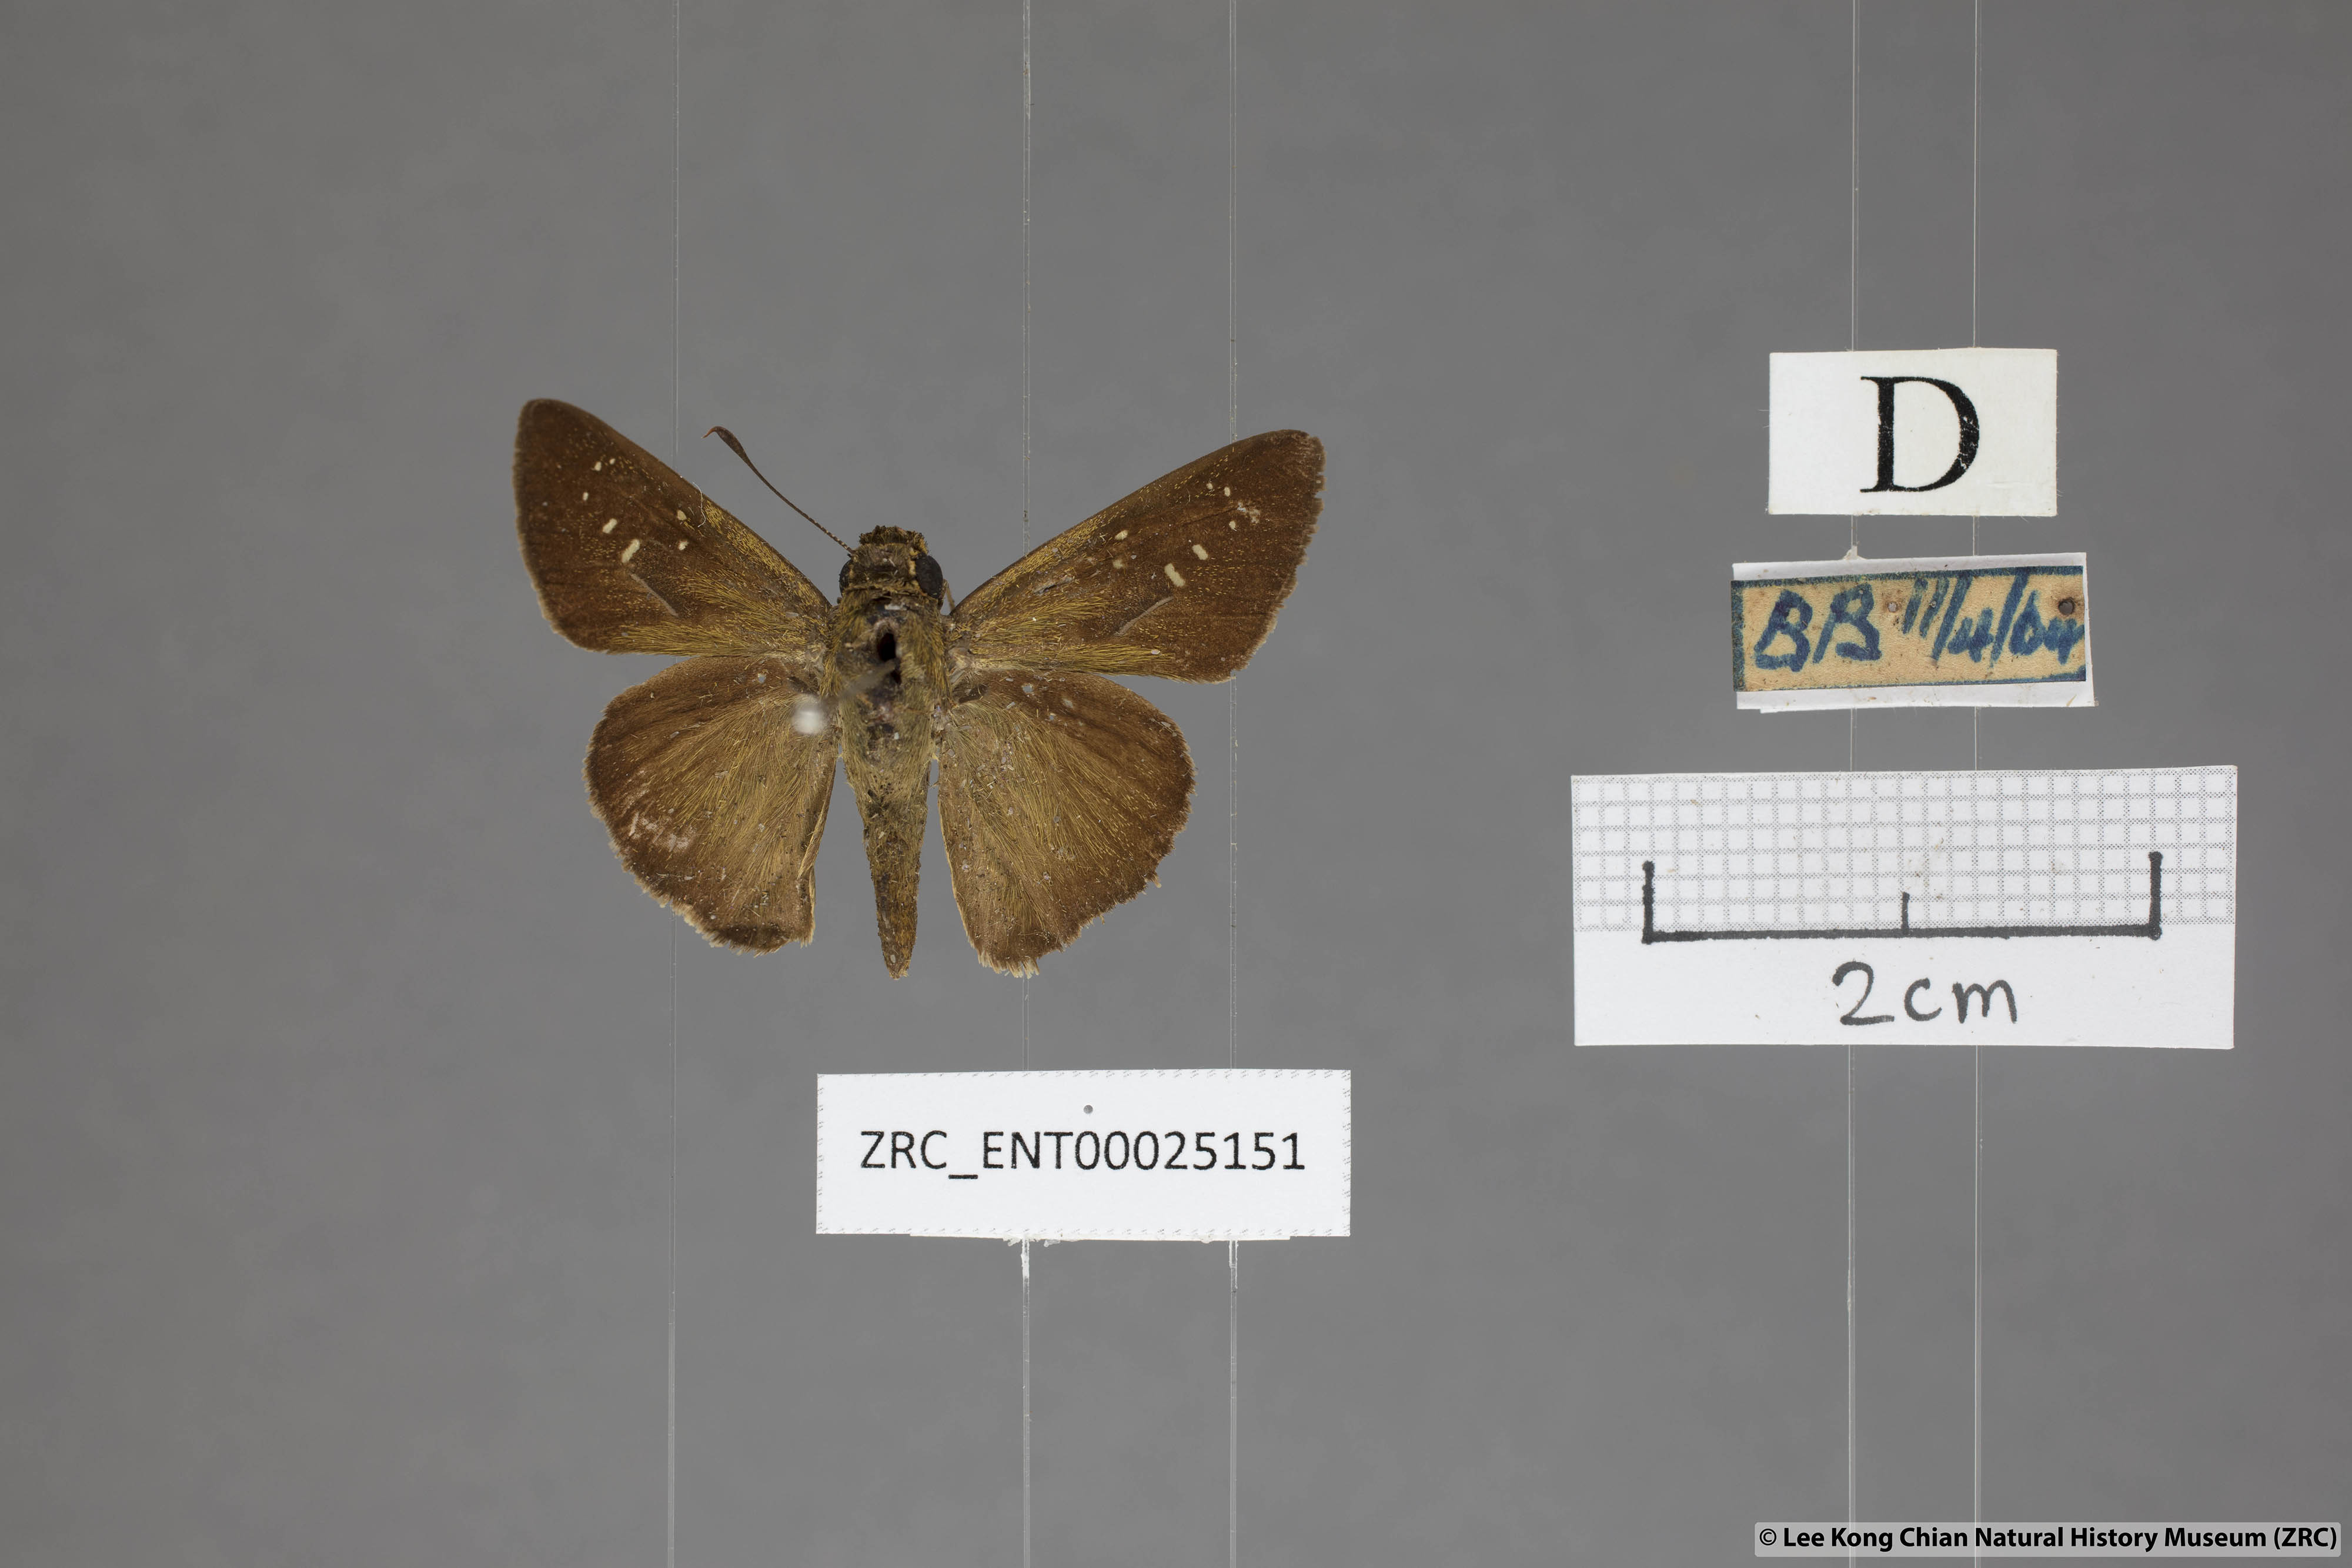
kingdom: Animalia
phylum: Arthropoda
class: Insecta
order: Lepidoptera
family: Hesperiidae
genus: Pelopidas
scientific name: Pelopidas mathias
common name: Black-branded swift
